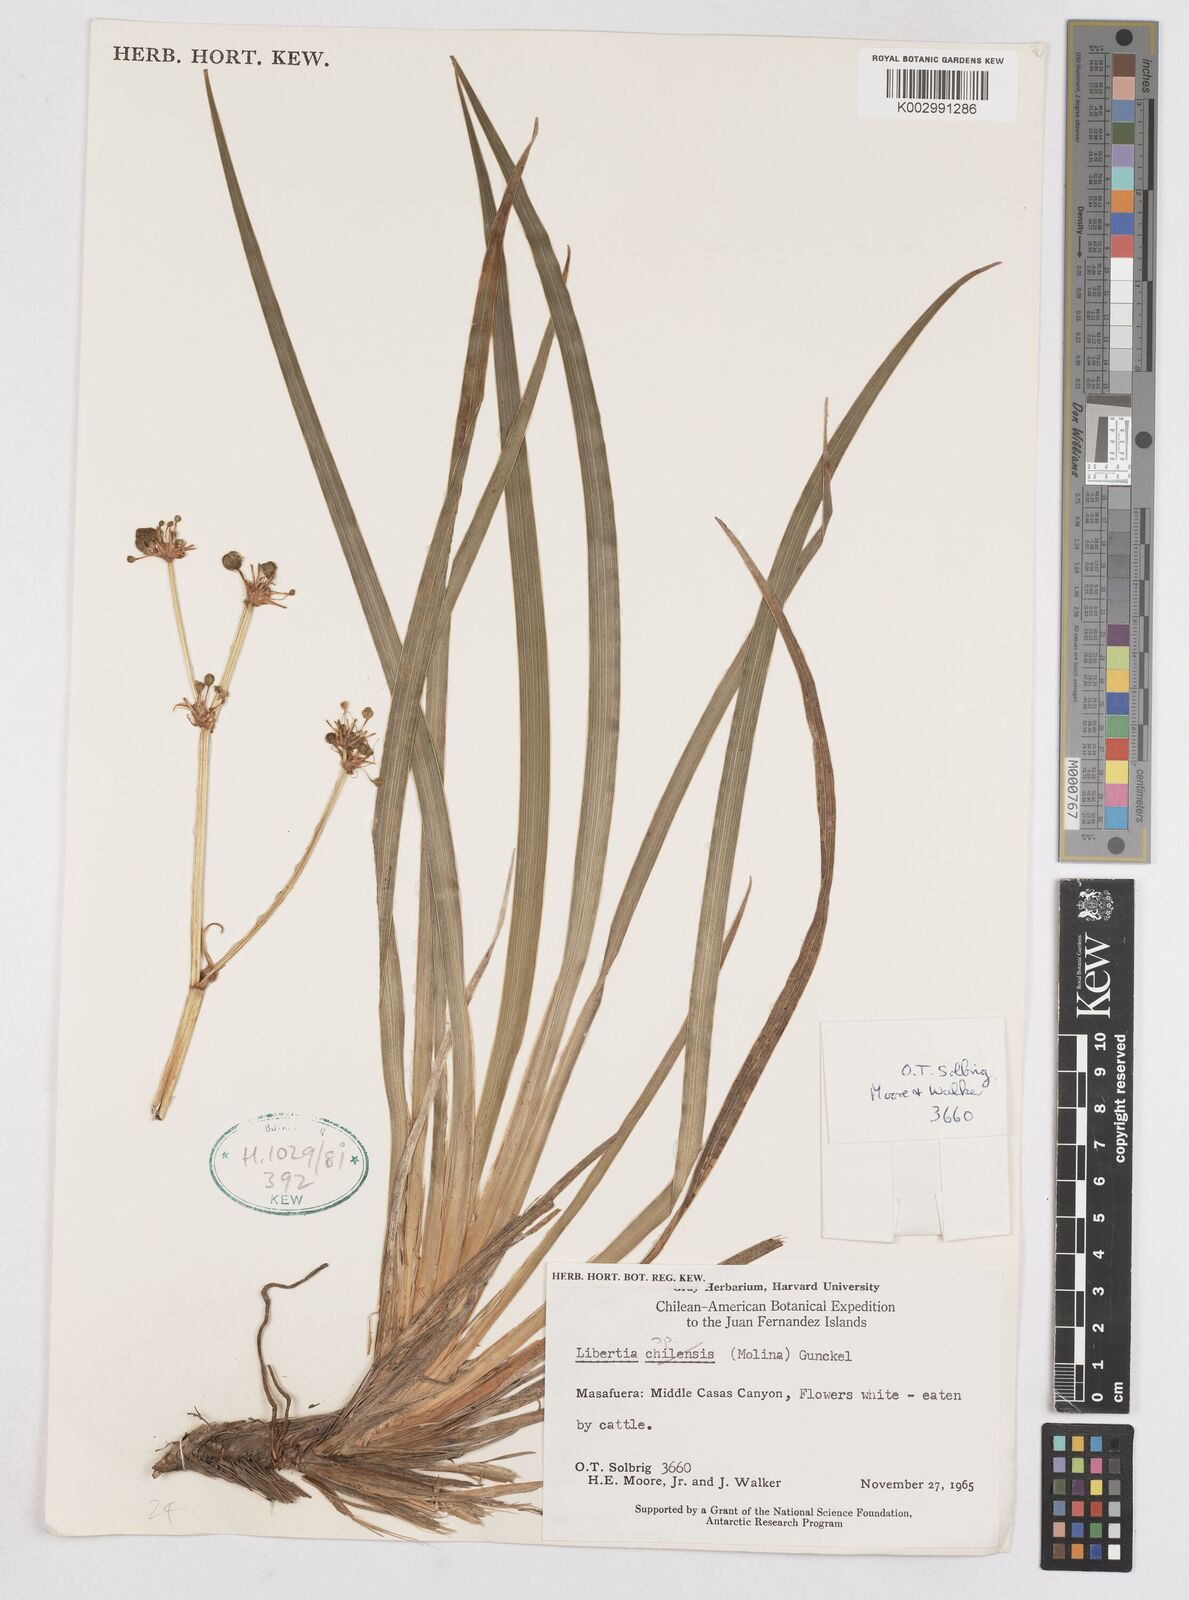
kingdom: Plantae
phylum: Tracheophyta
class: Liliopsida
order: Asparagales
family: Iridaceae
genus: Libertia
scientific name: Libertia
